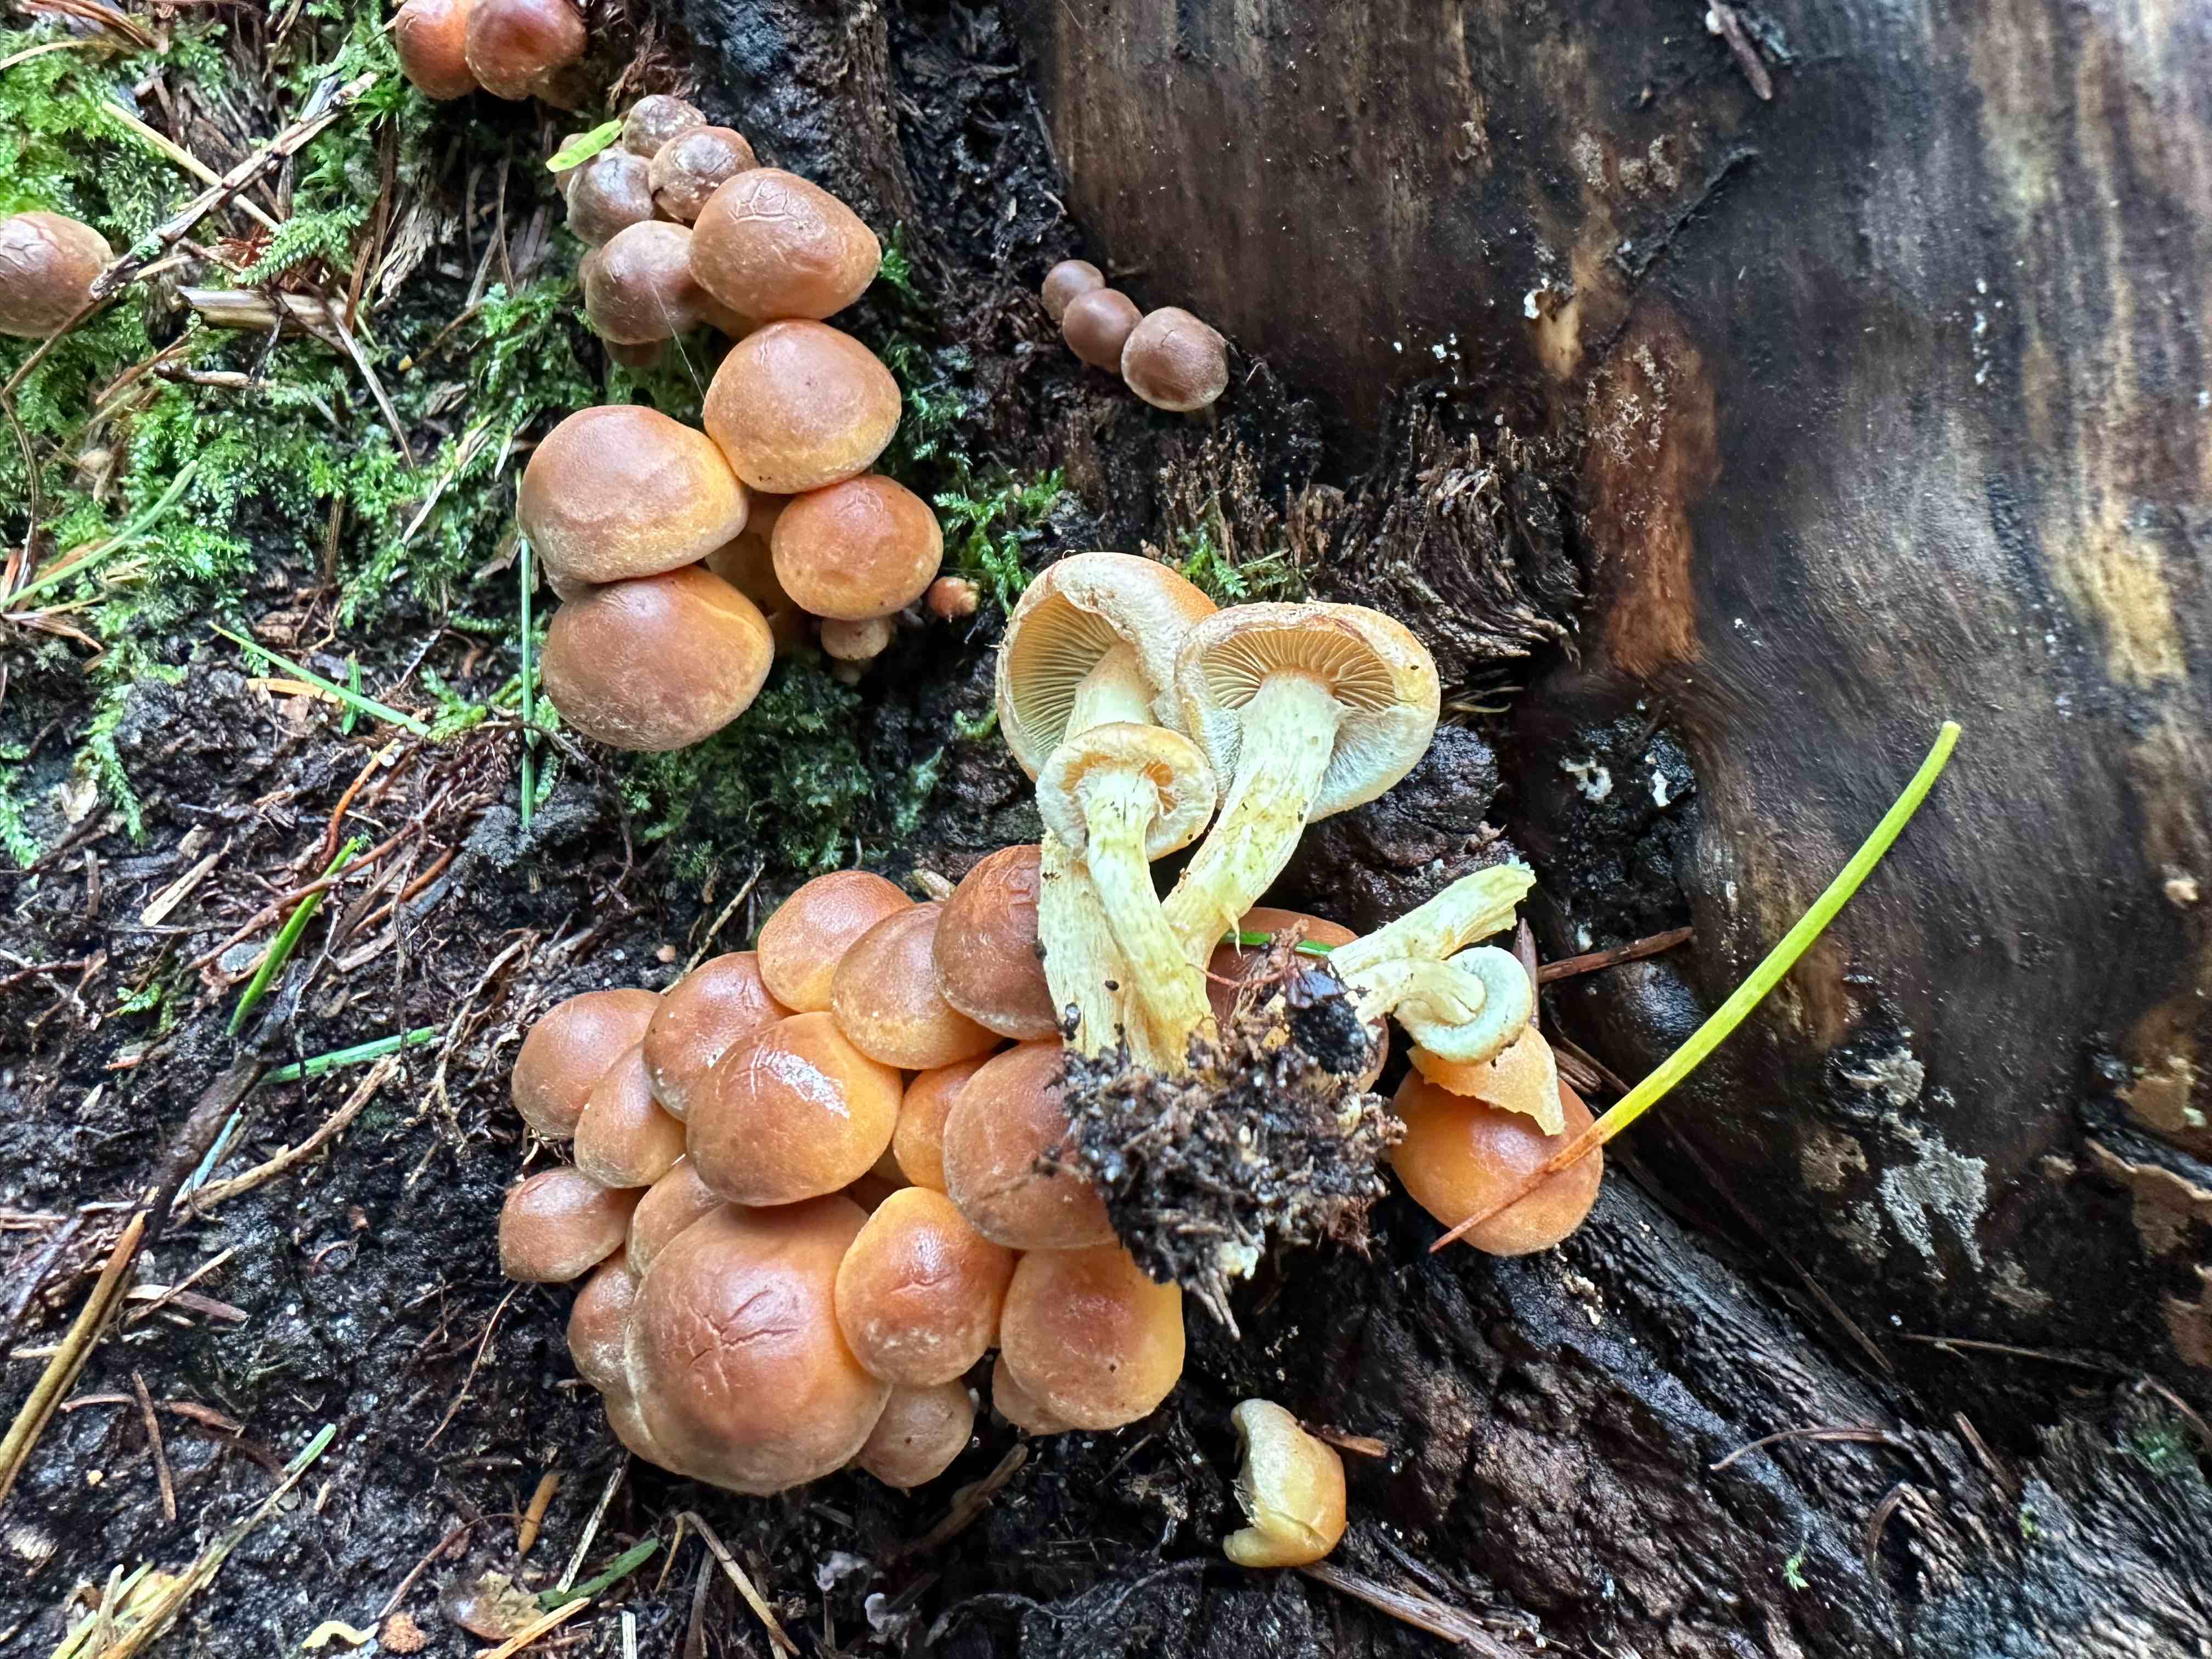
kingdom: Fungi
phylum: Basidiomycota
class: Agaricomycetes
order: Agaricales
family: Strophariaceae
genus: Hypholoma
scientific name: Hypholoma fasciculare
